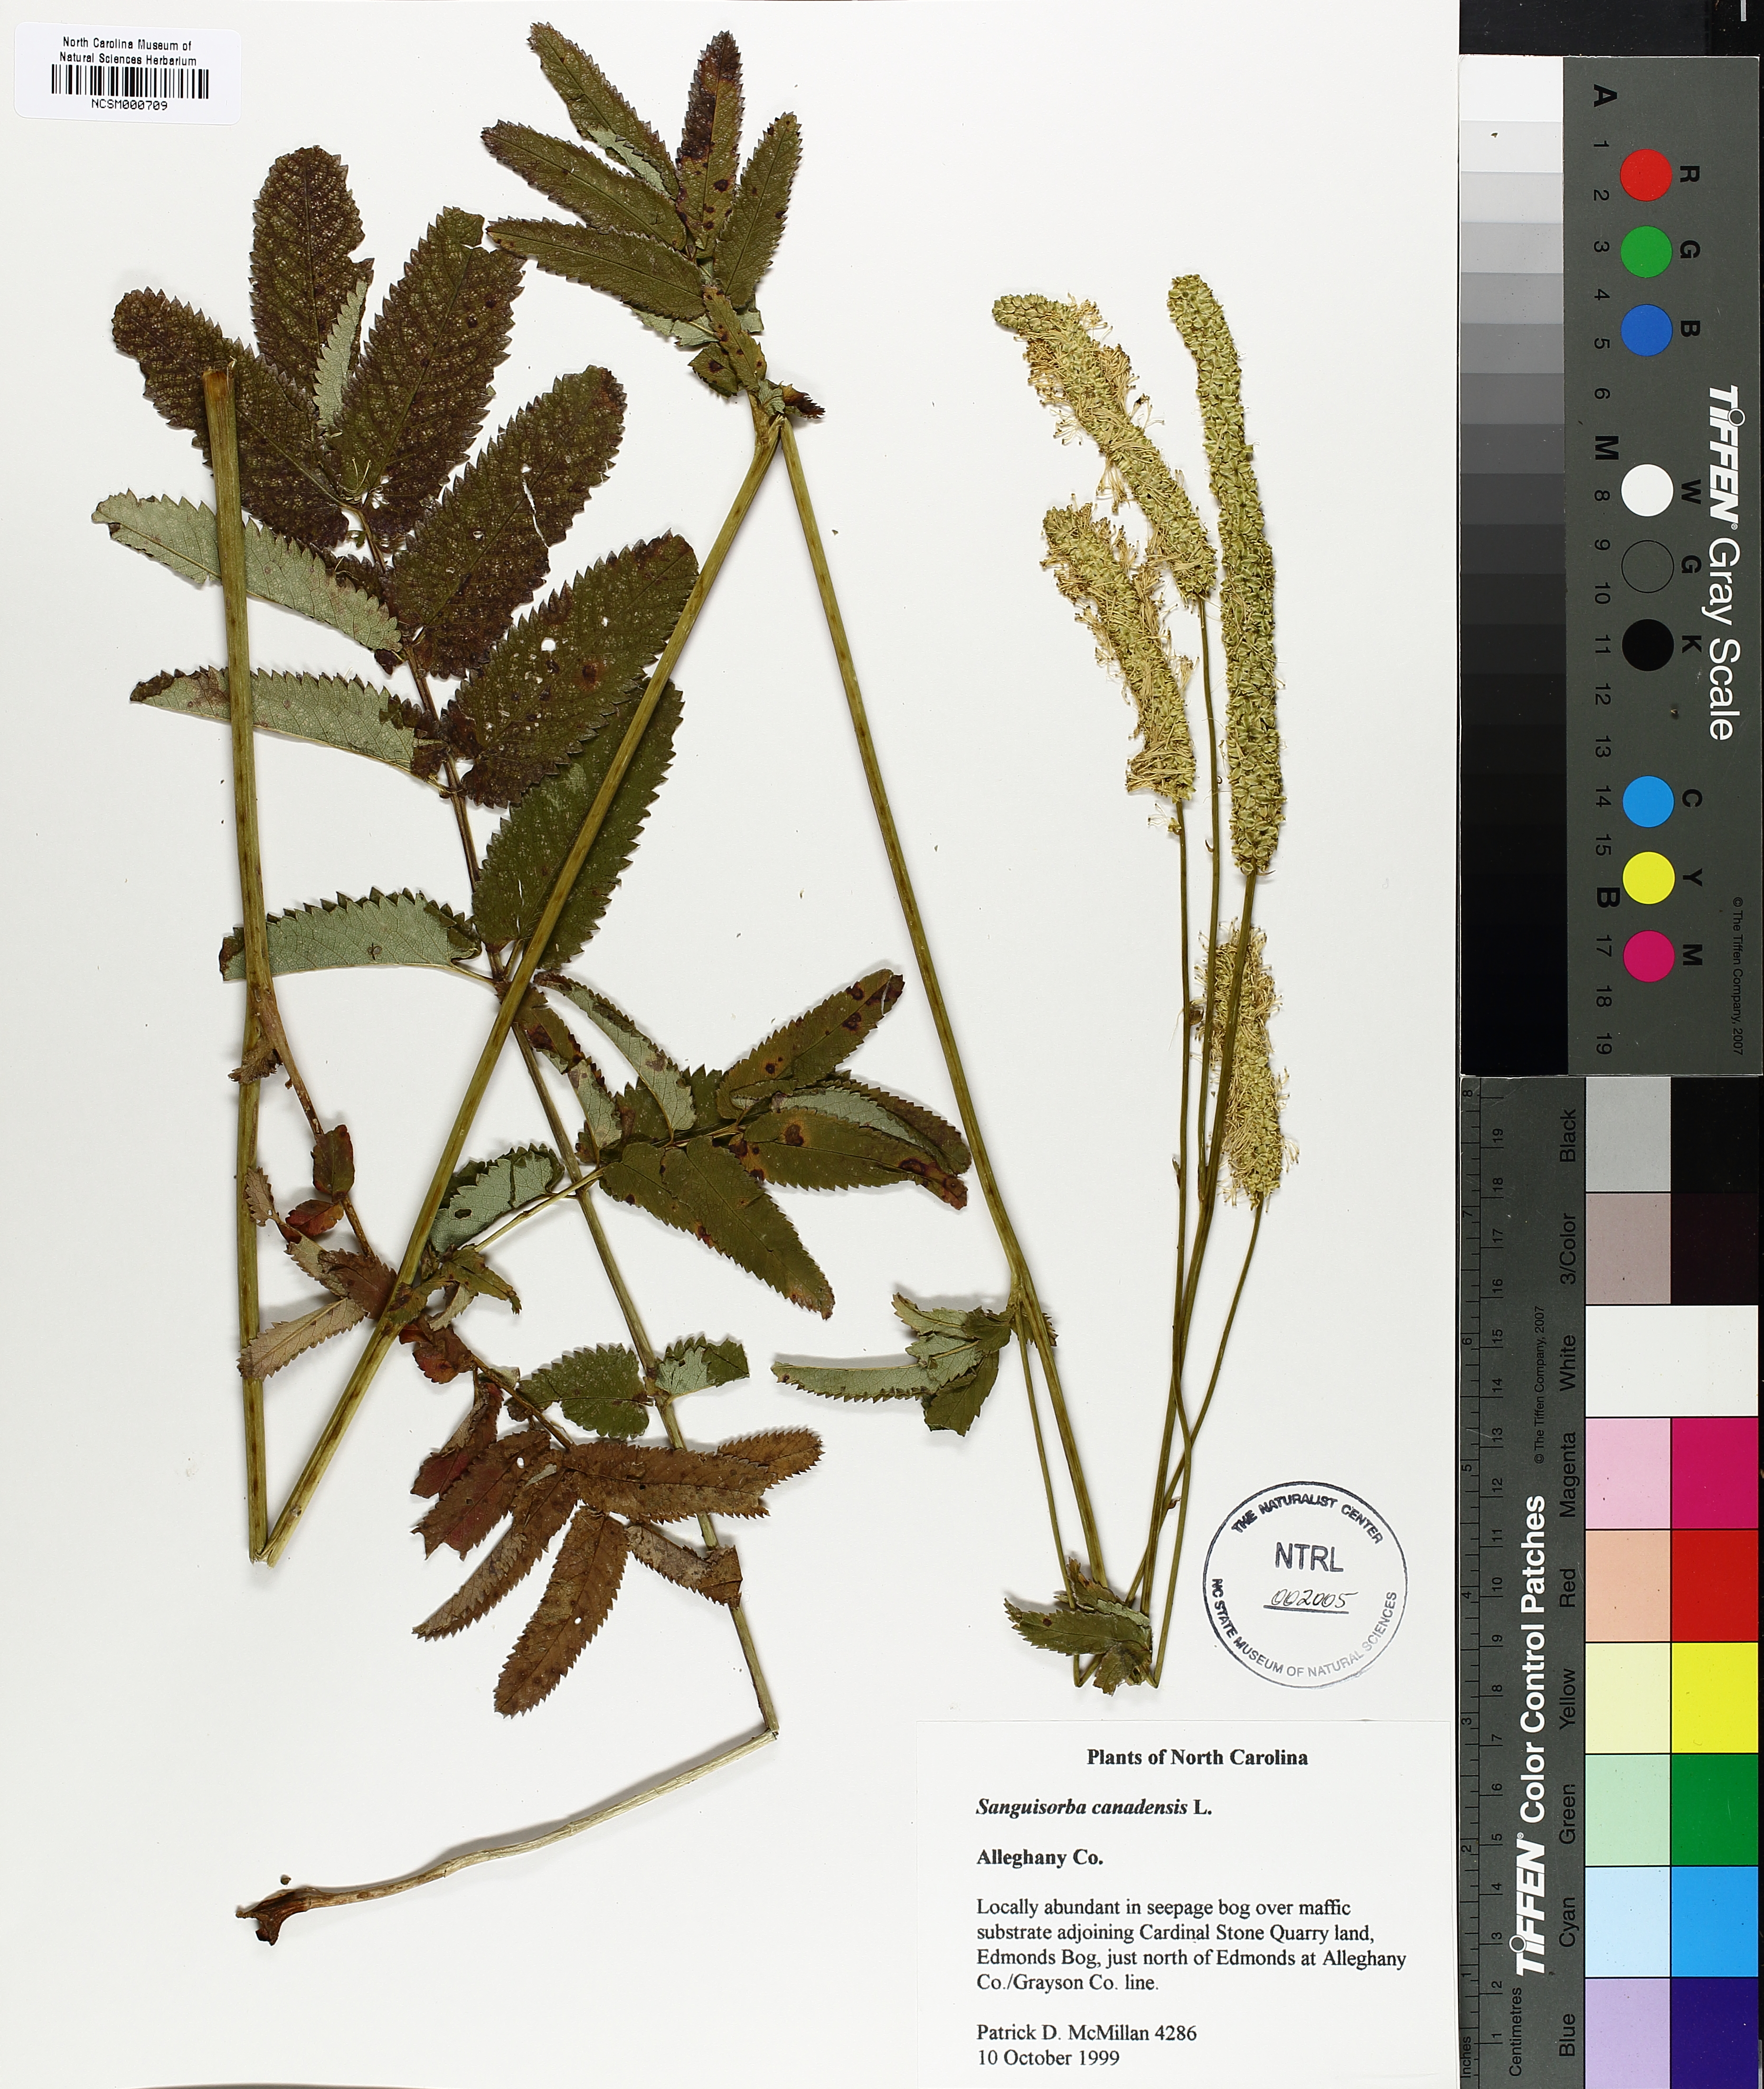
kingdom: Plantae
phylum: Tracheophyta
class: Magnoliopsida
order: Rosales
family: Rosaceae
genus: Sanguisorba
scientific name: Sanguisorba canadensis
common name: White burnet
